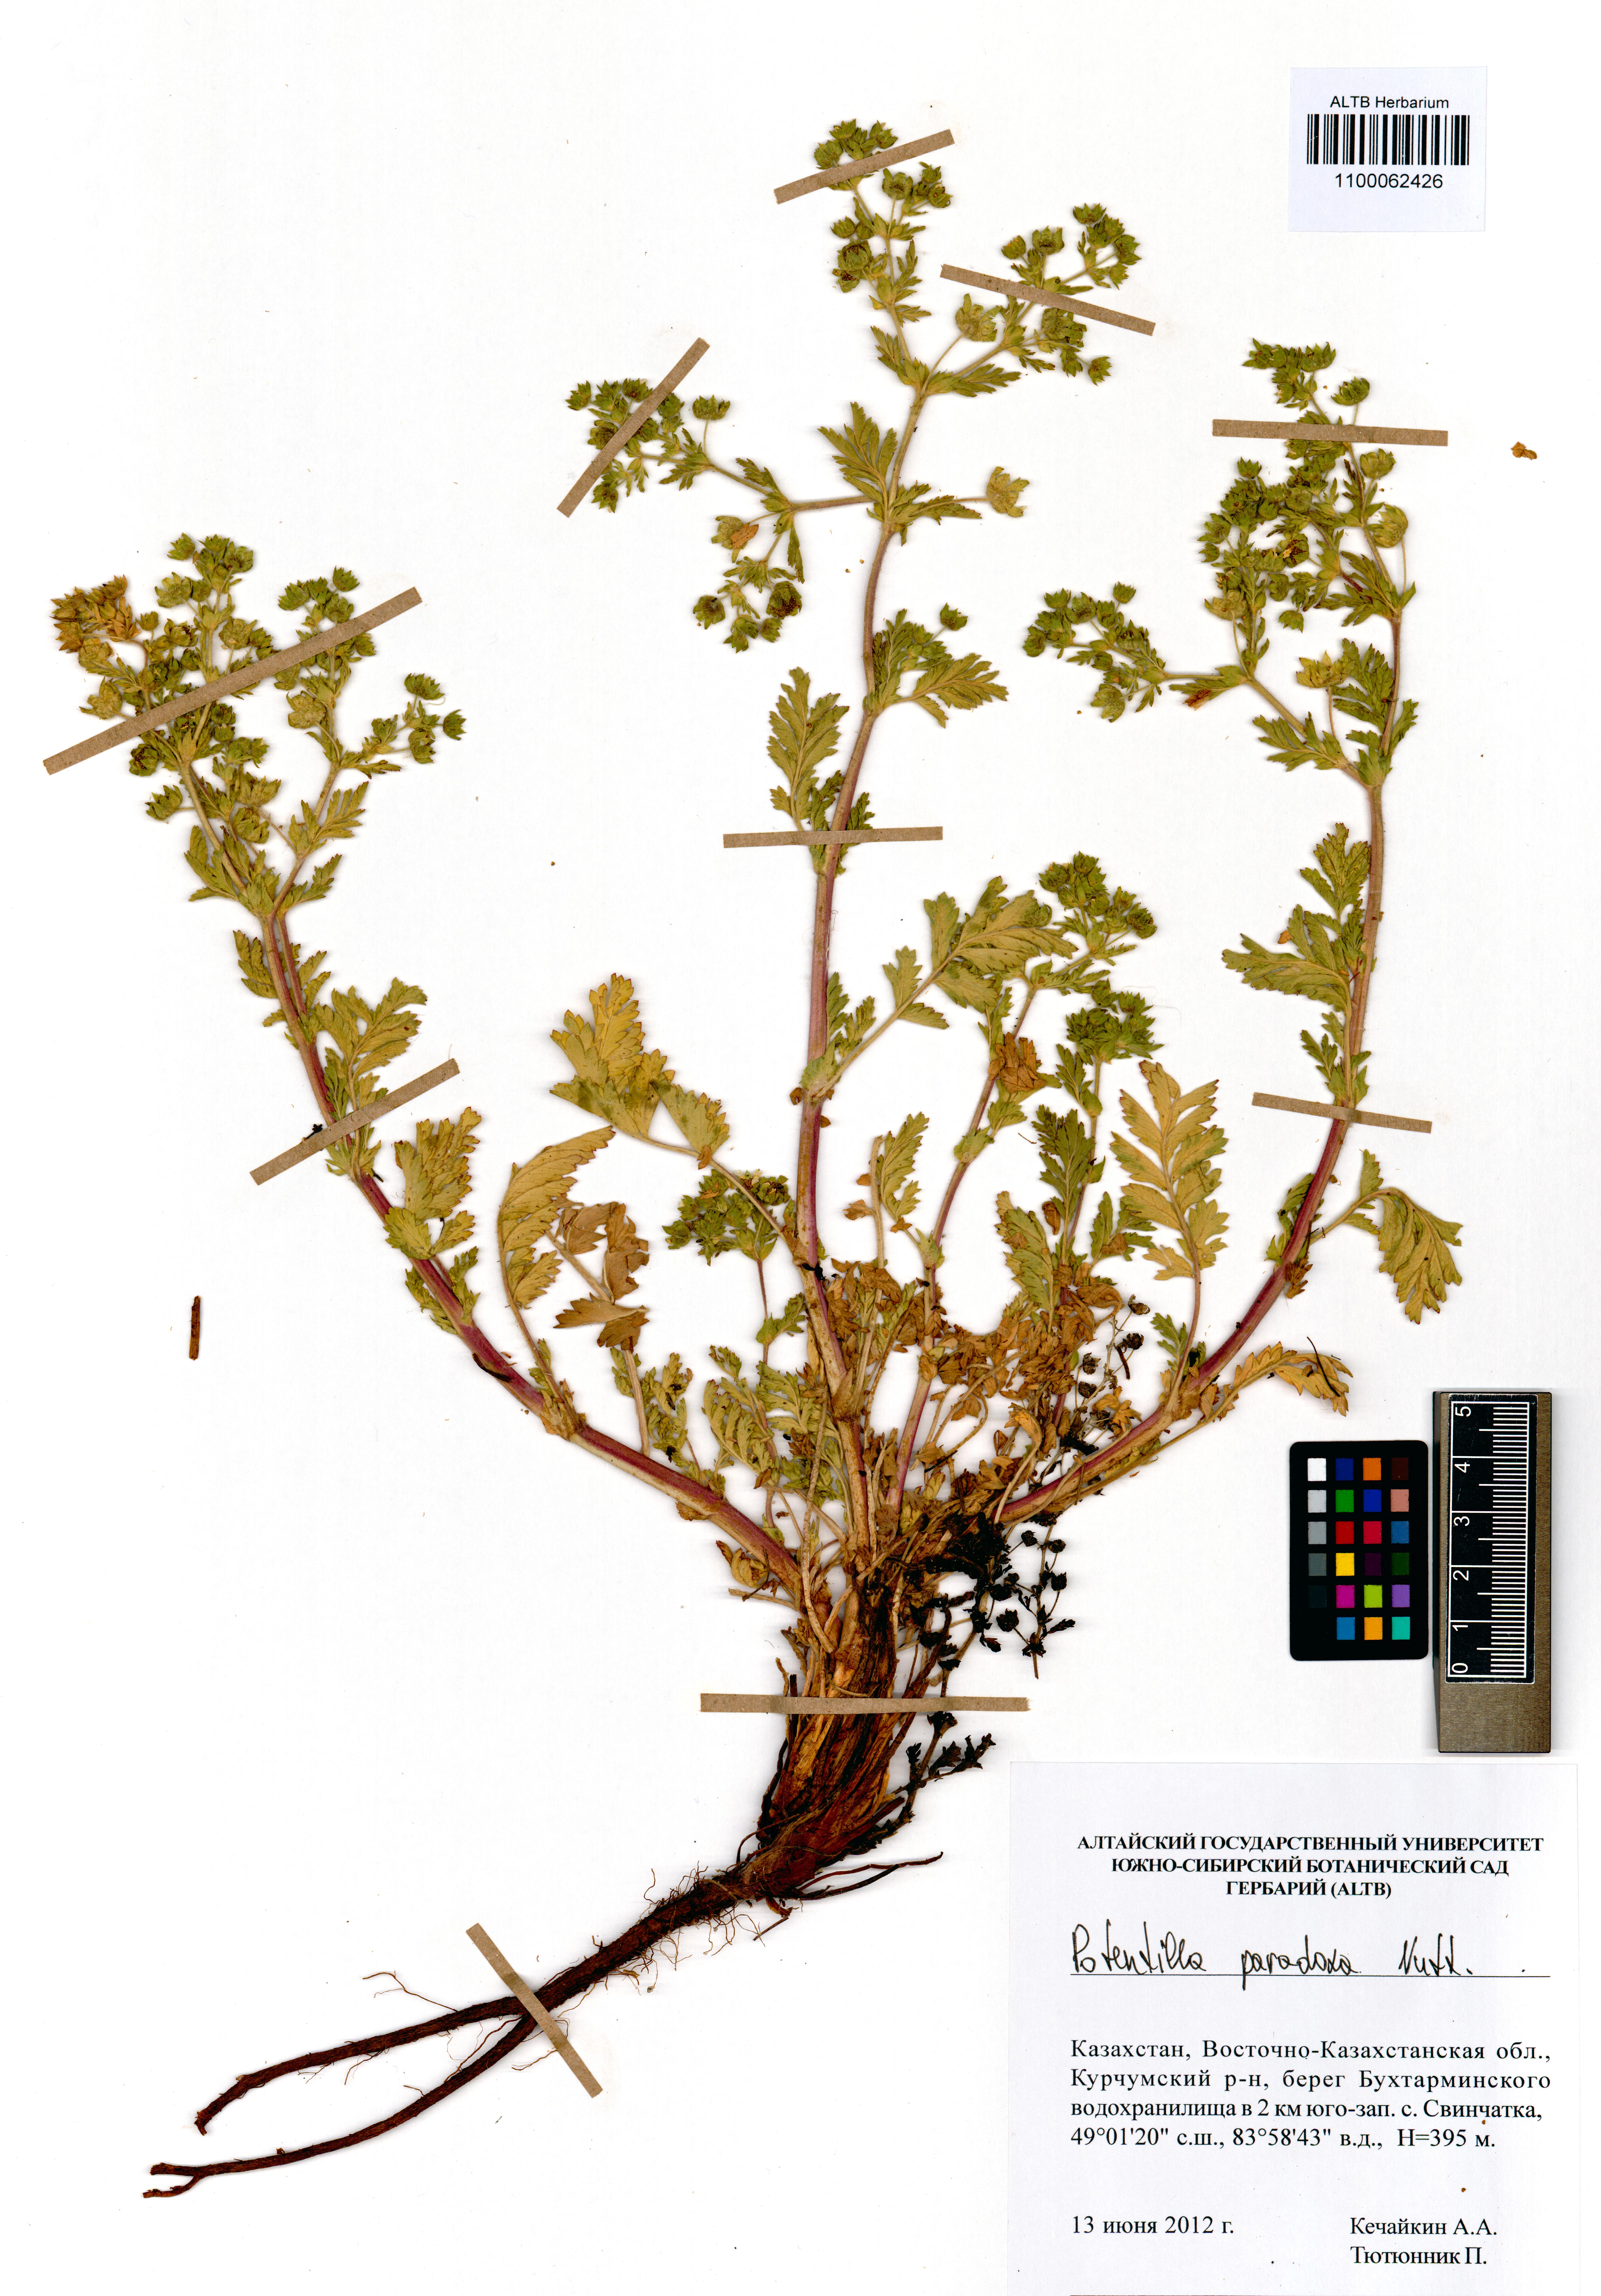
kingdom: Plantae
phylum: Tracheophyta
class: Magnoliopsida
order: Rosales
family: Rosaceae
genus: Potentilla
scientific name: Potentilla supina
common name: Prostrate cinquefoil
